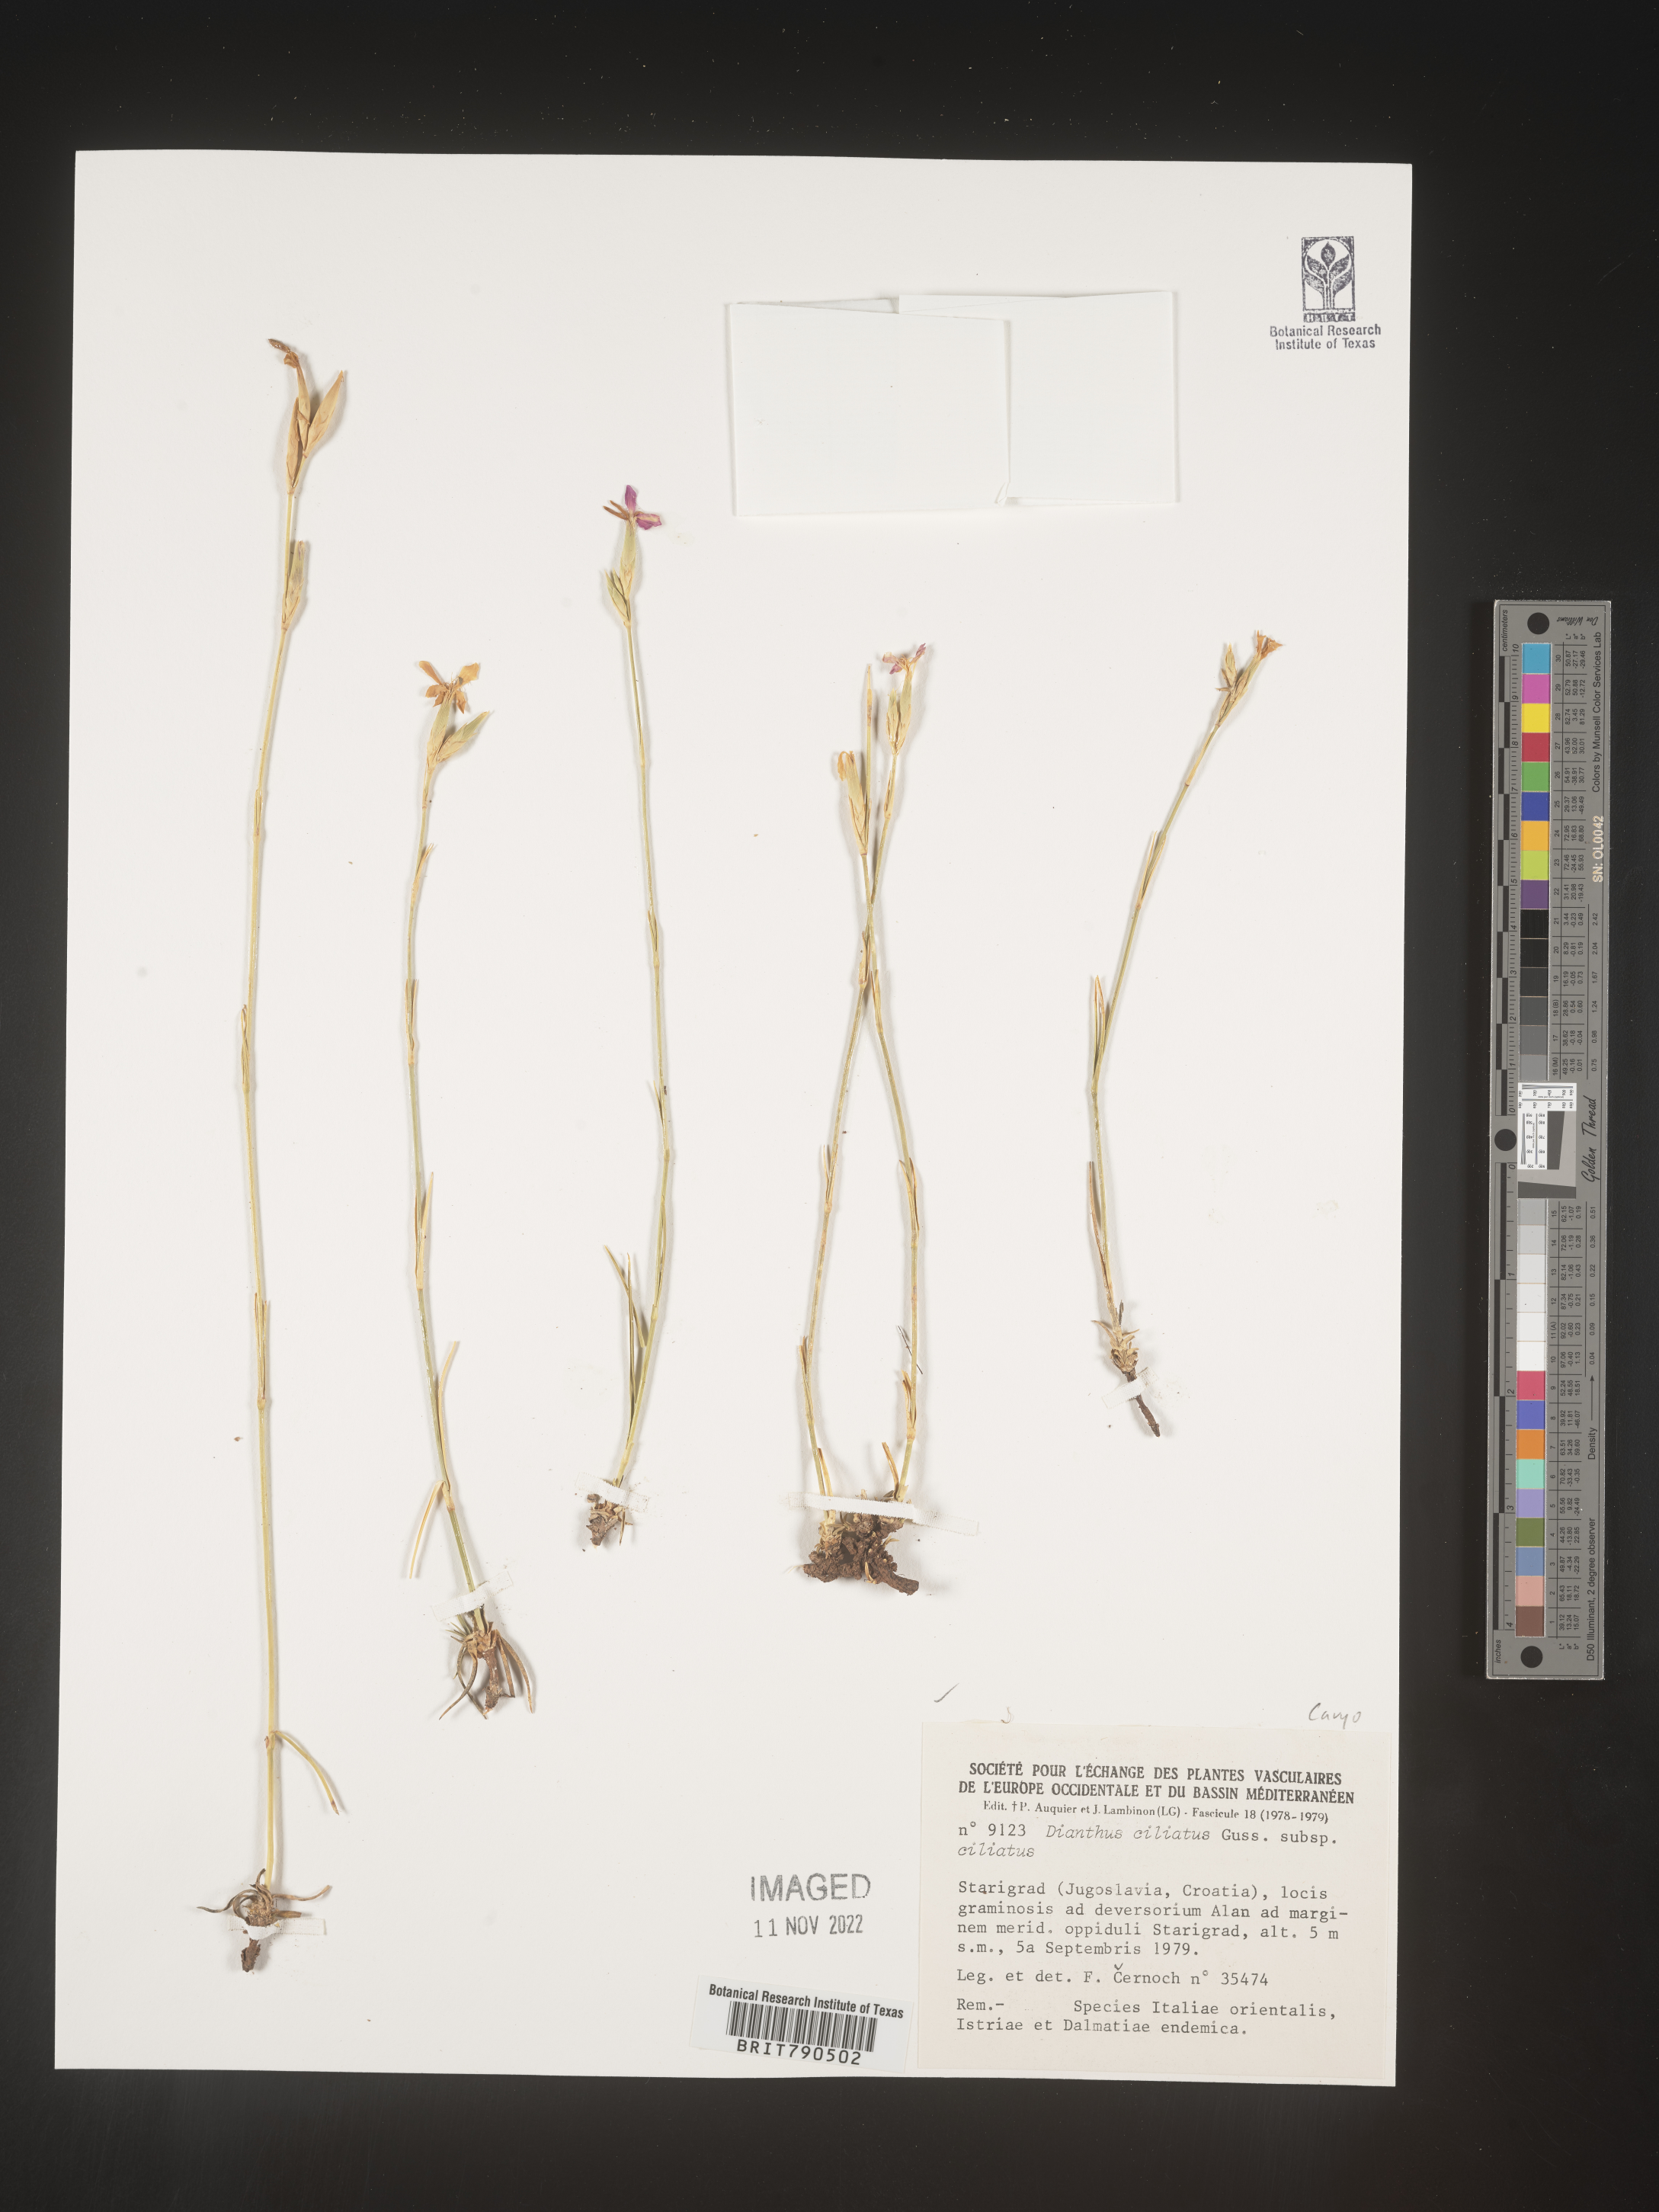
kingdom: Plantae
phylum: Tracheophyta
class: Magnoliopsida
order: Caryophyllales
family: Caryophyllaceae
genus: Dianthus
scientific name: Dianthus
